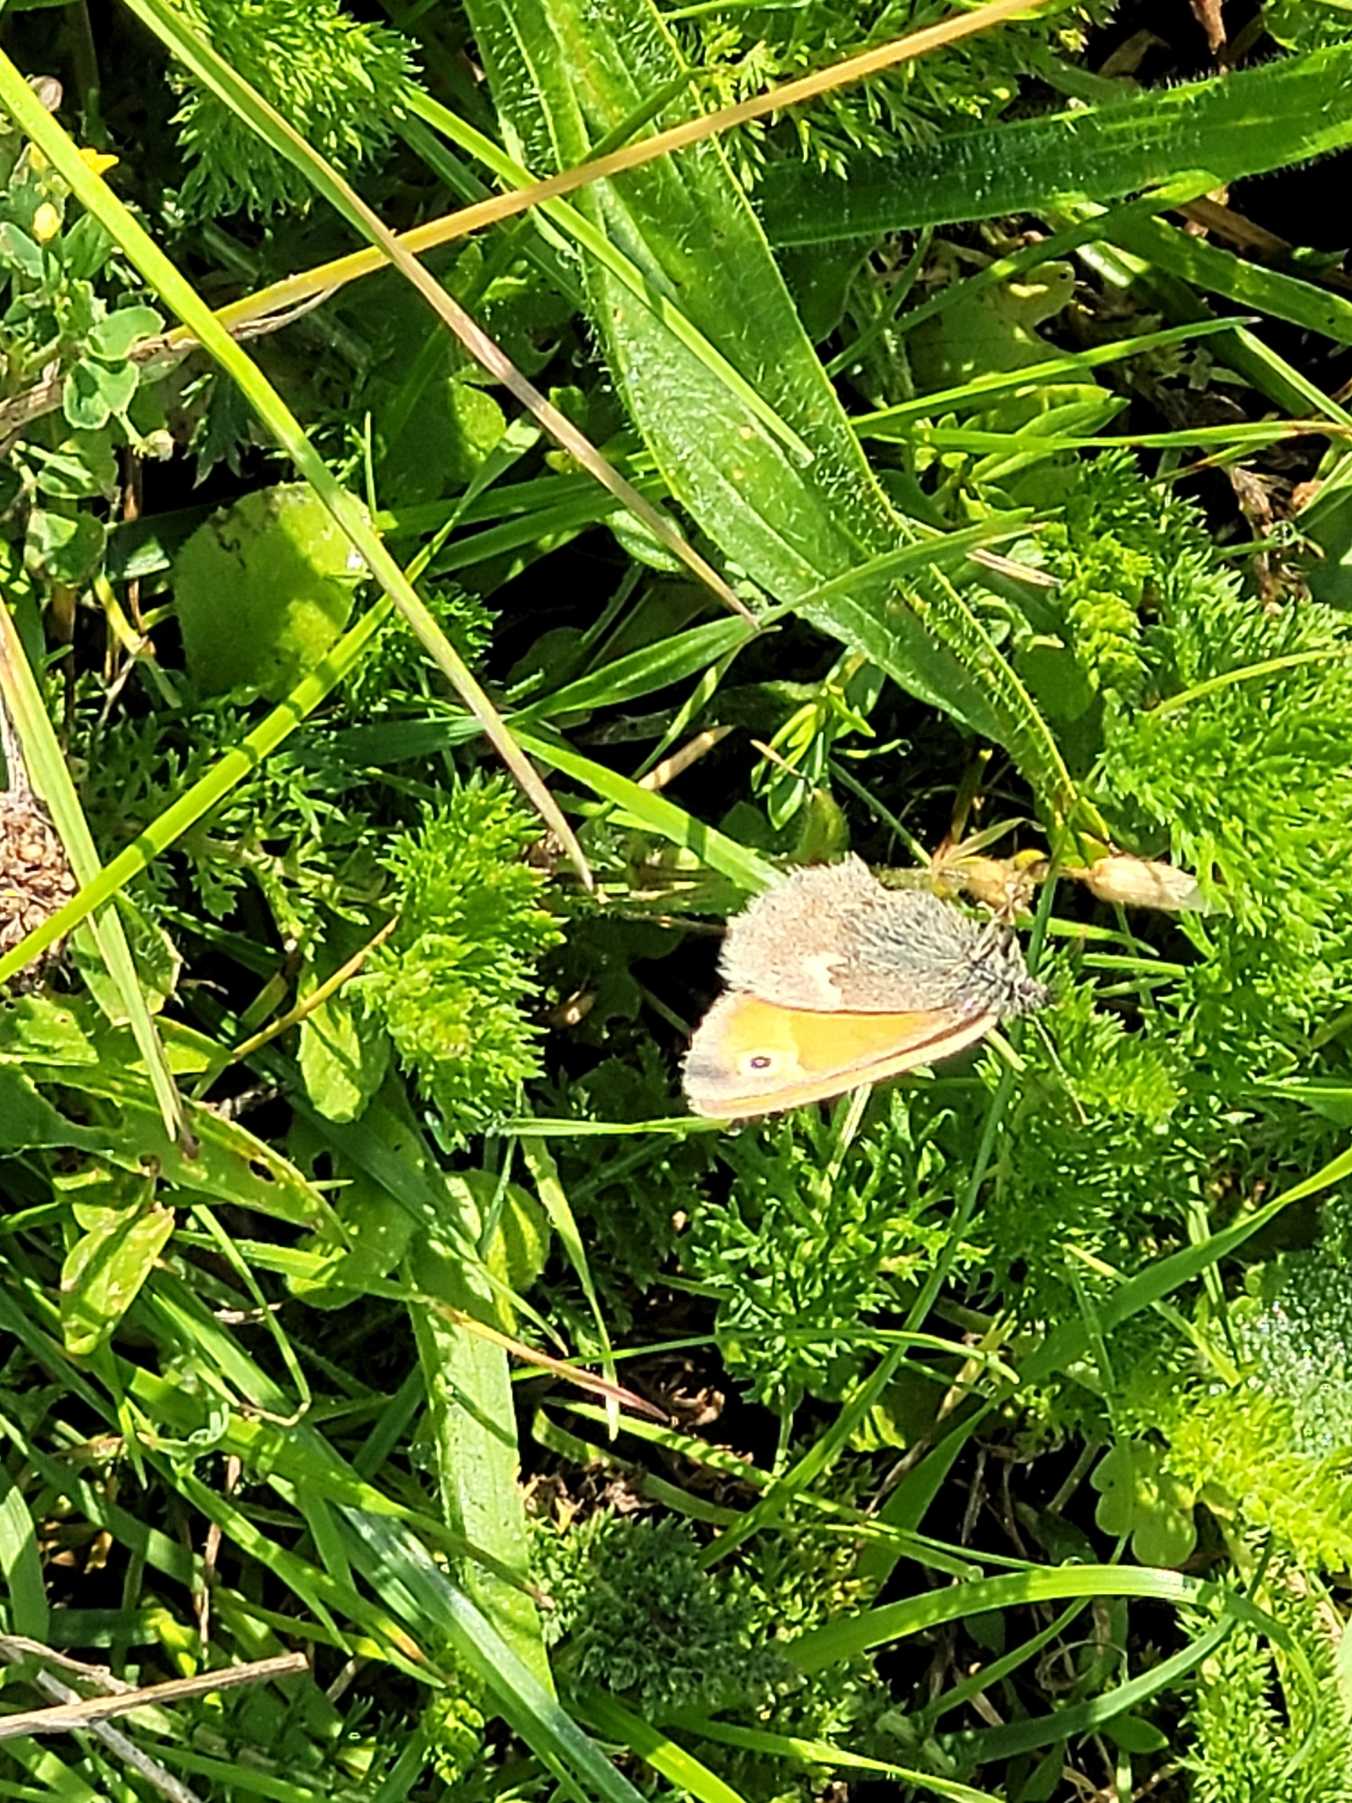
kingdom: Animalia
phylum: Arthropoda
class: Insecta
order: Lepidoptera
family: Nymphalidae
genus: Coenonympha
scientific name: Coenonympha pamphilus
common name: Okkergul randøje
